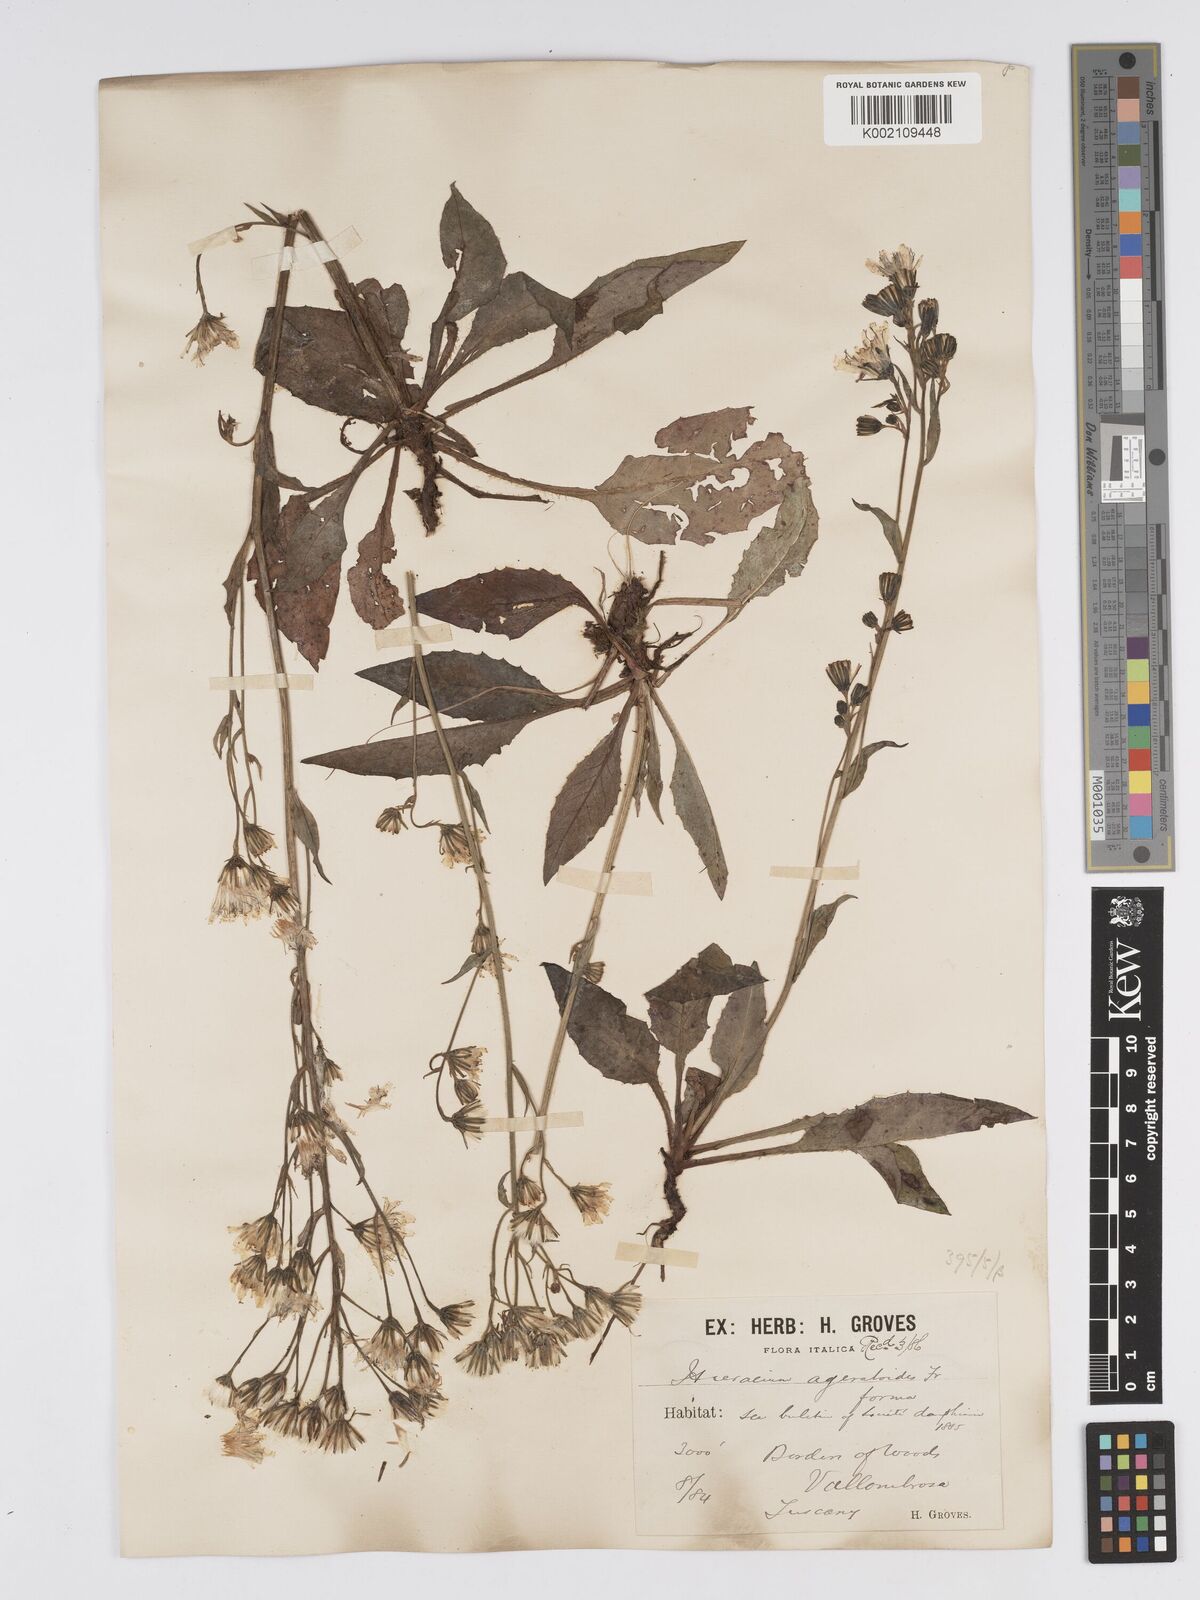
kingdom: Plantae
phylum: Tracheophyta
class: Magnoliopsida
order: Asterales
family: Asteraceae
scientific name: Asteraceae
